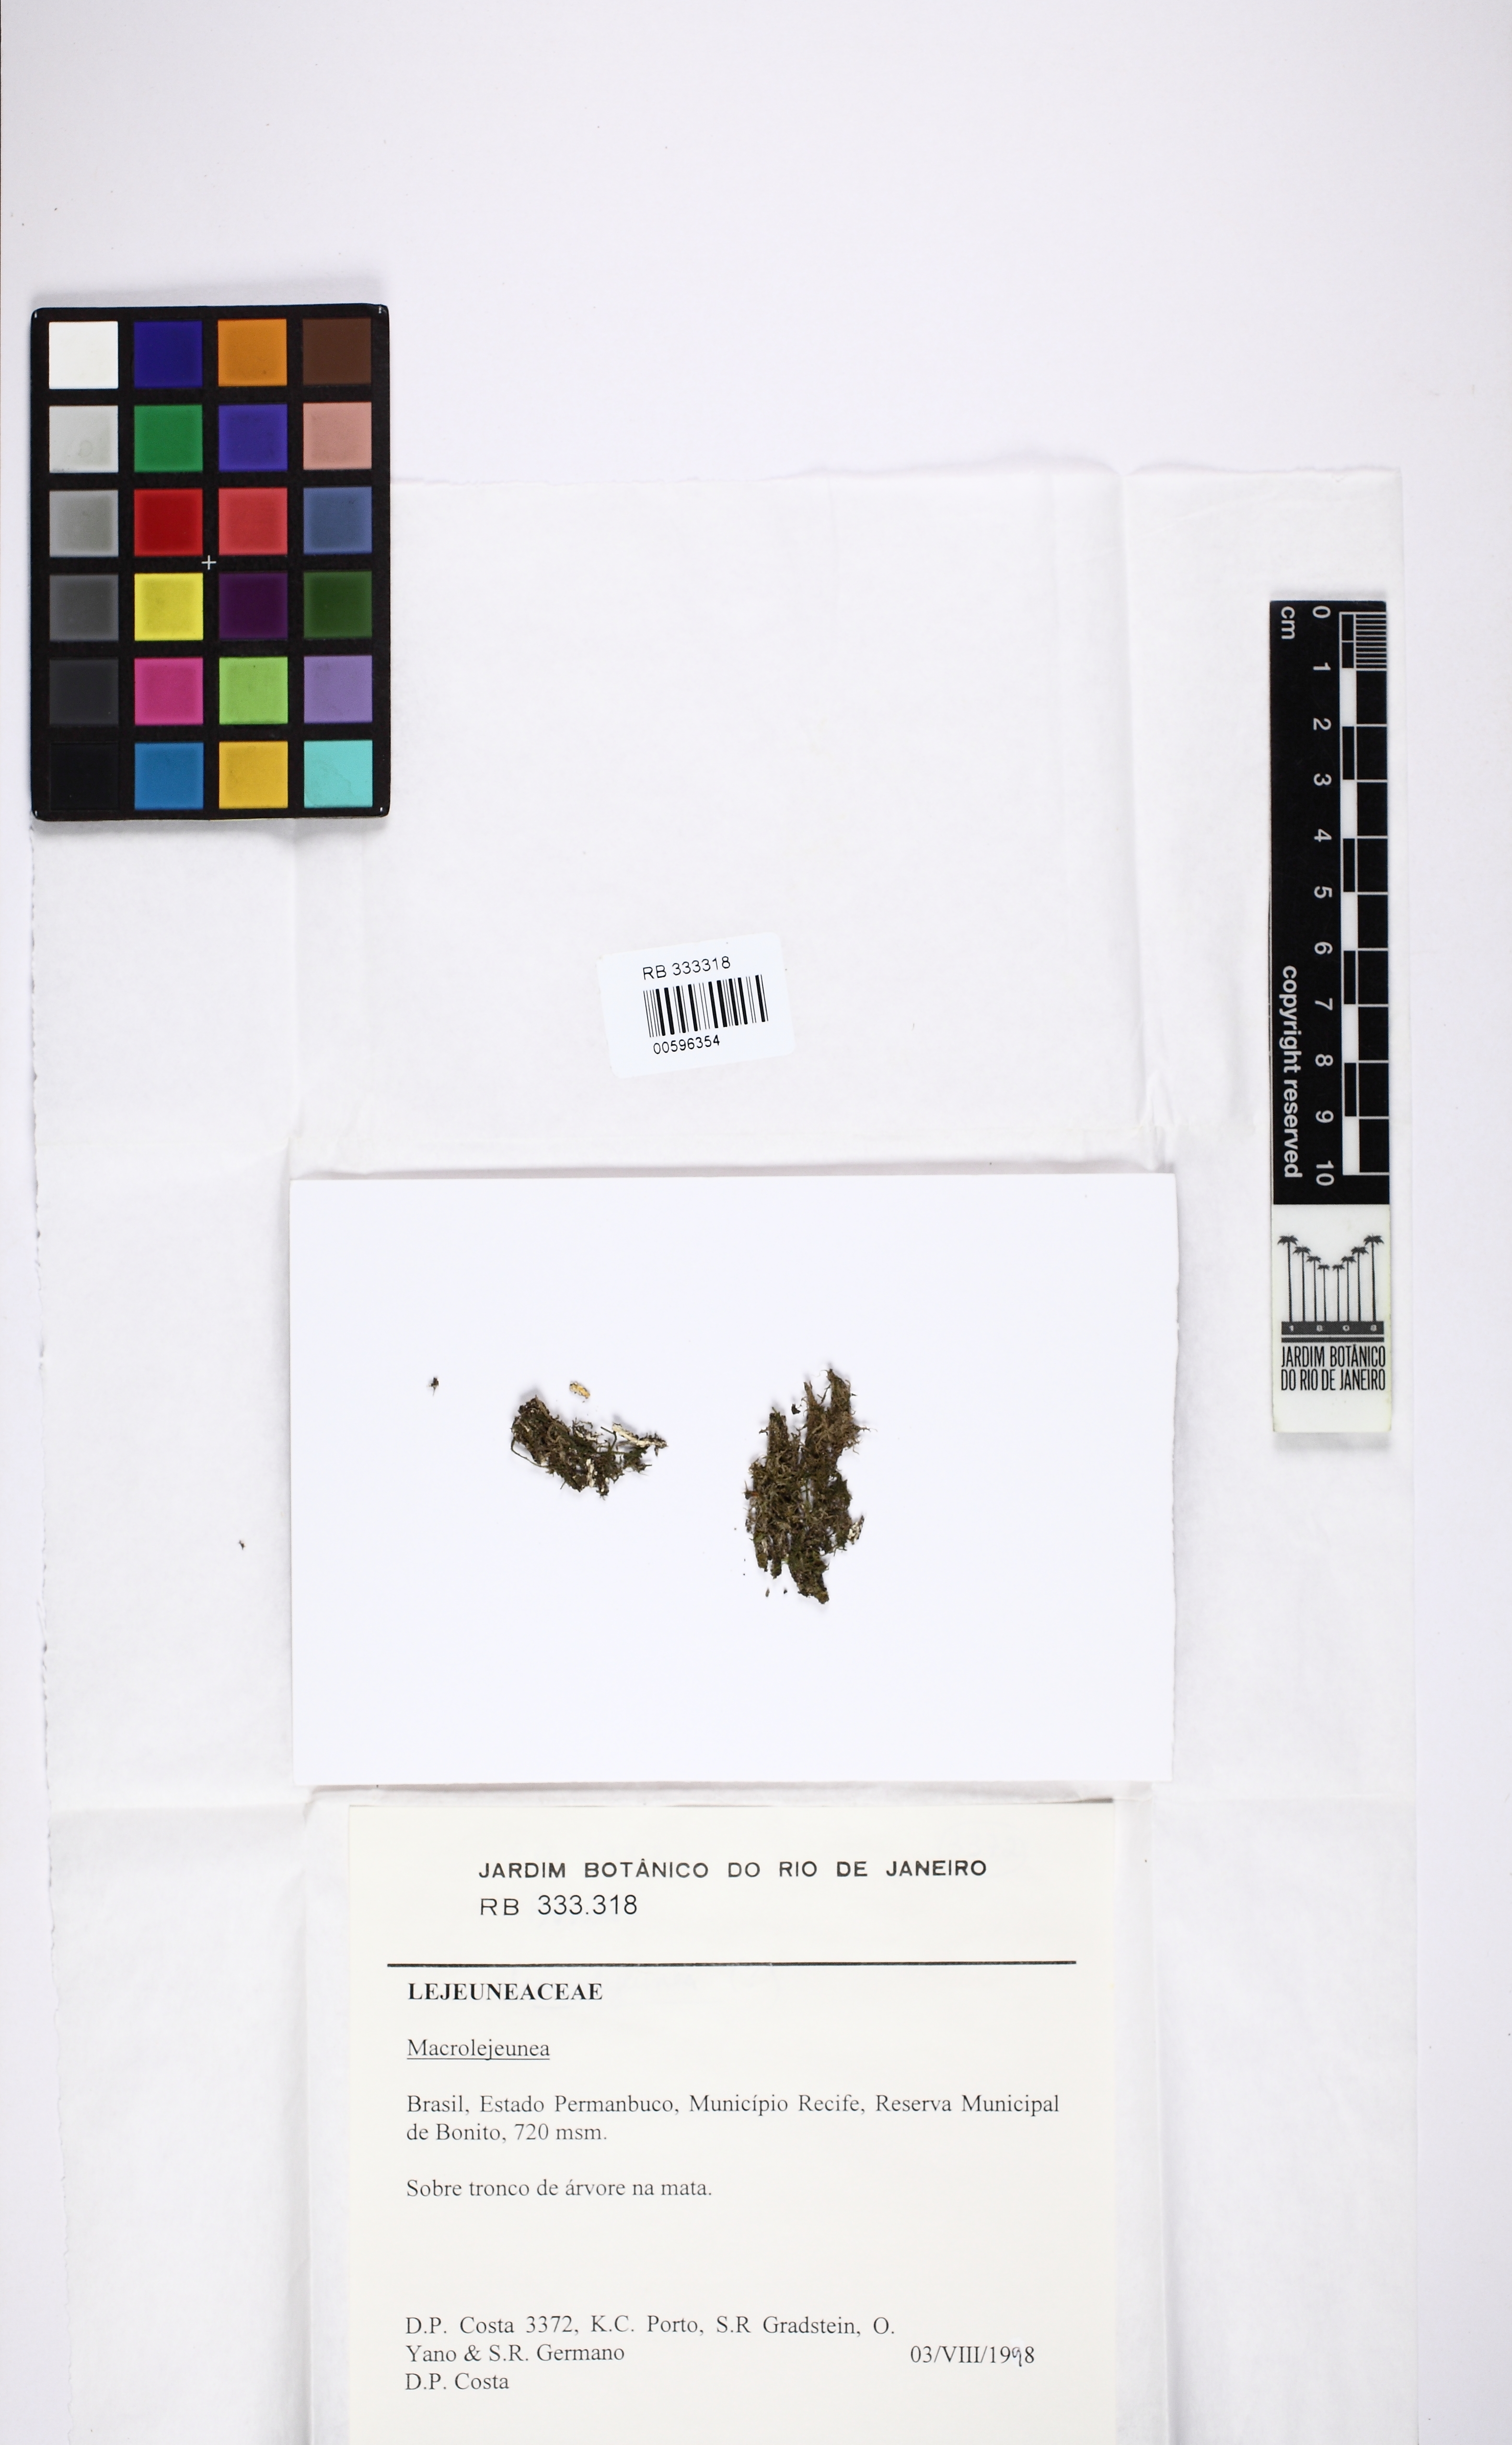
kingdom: Plantae
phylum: Marchantiophyta
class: Jungermanniopsida
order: Porellales
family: Lejeuneaceae
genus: Lejeunea
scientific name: Lejeunea
